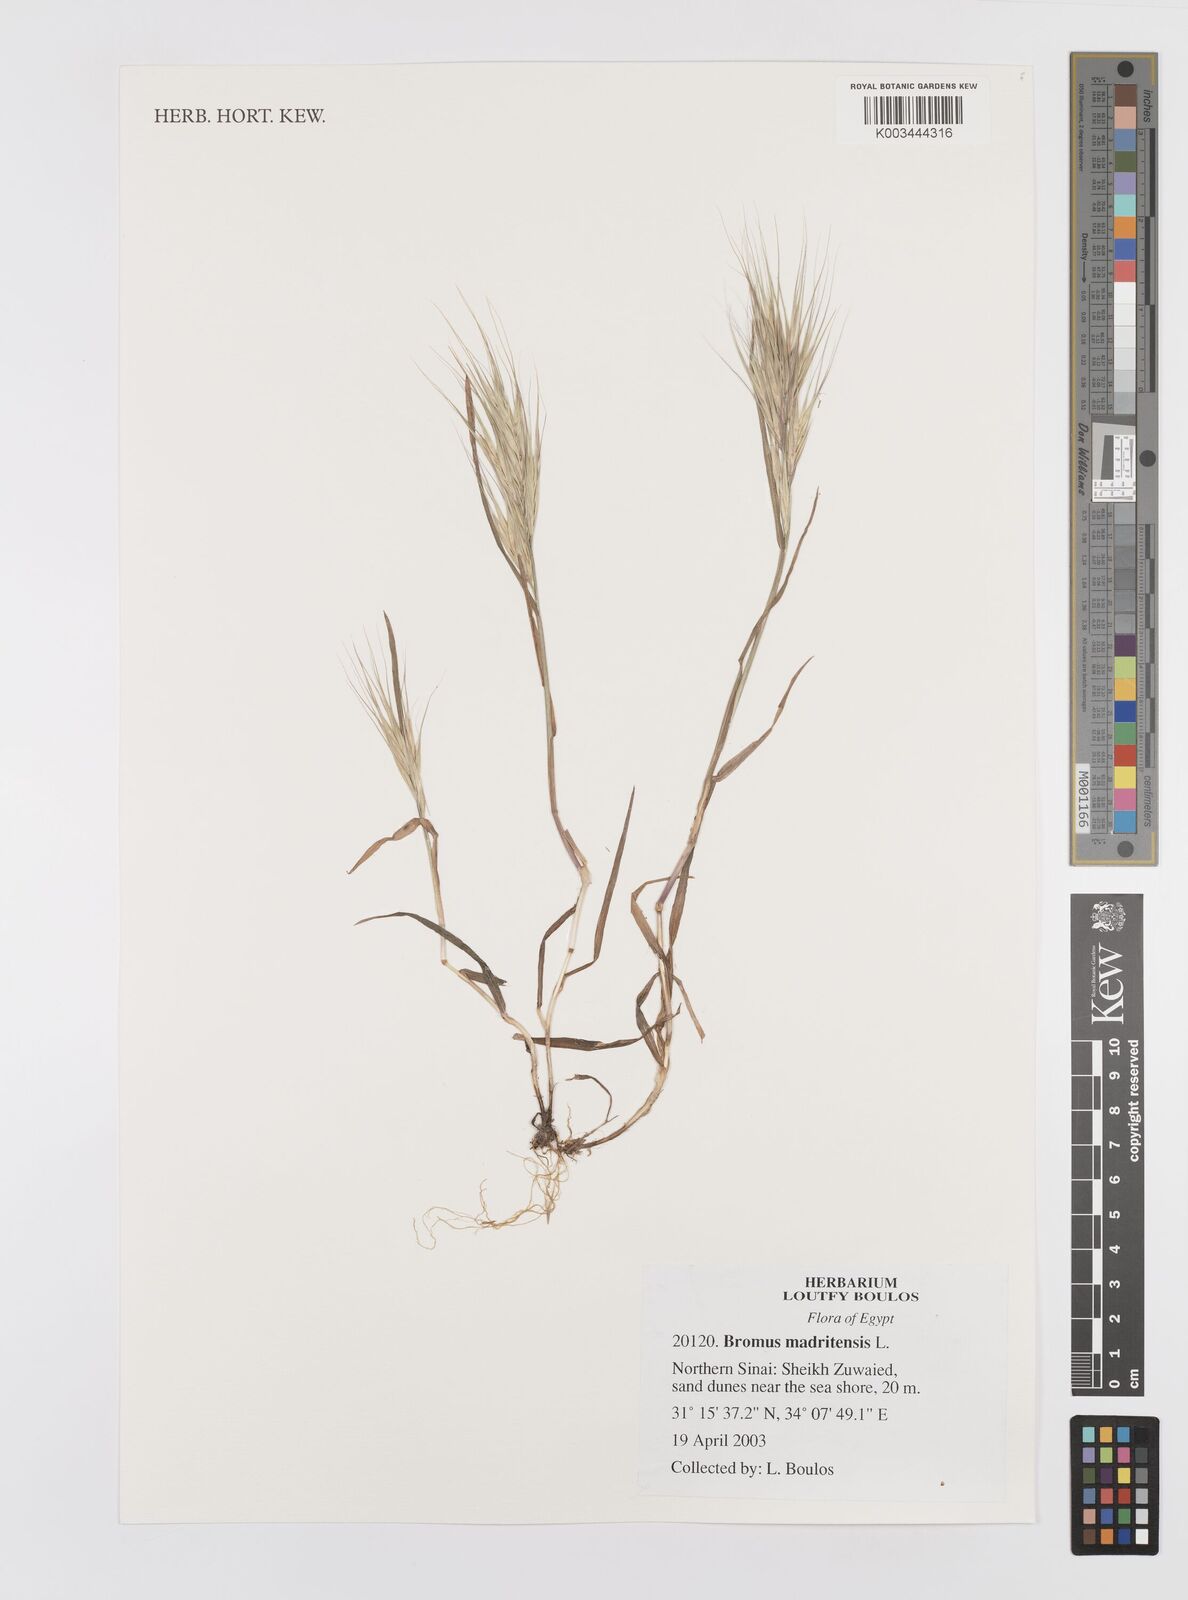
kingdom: Plantae
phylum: Tracheophyta
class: Liliopsida
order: Poales
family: Poaceae
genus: Bromus
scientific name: Bromus madritensis
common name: Compact brome
